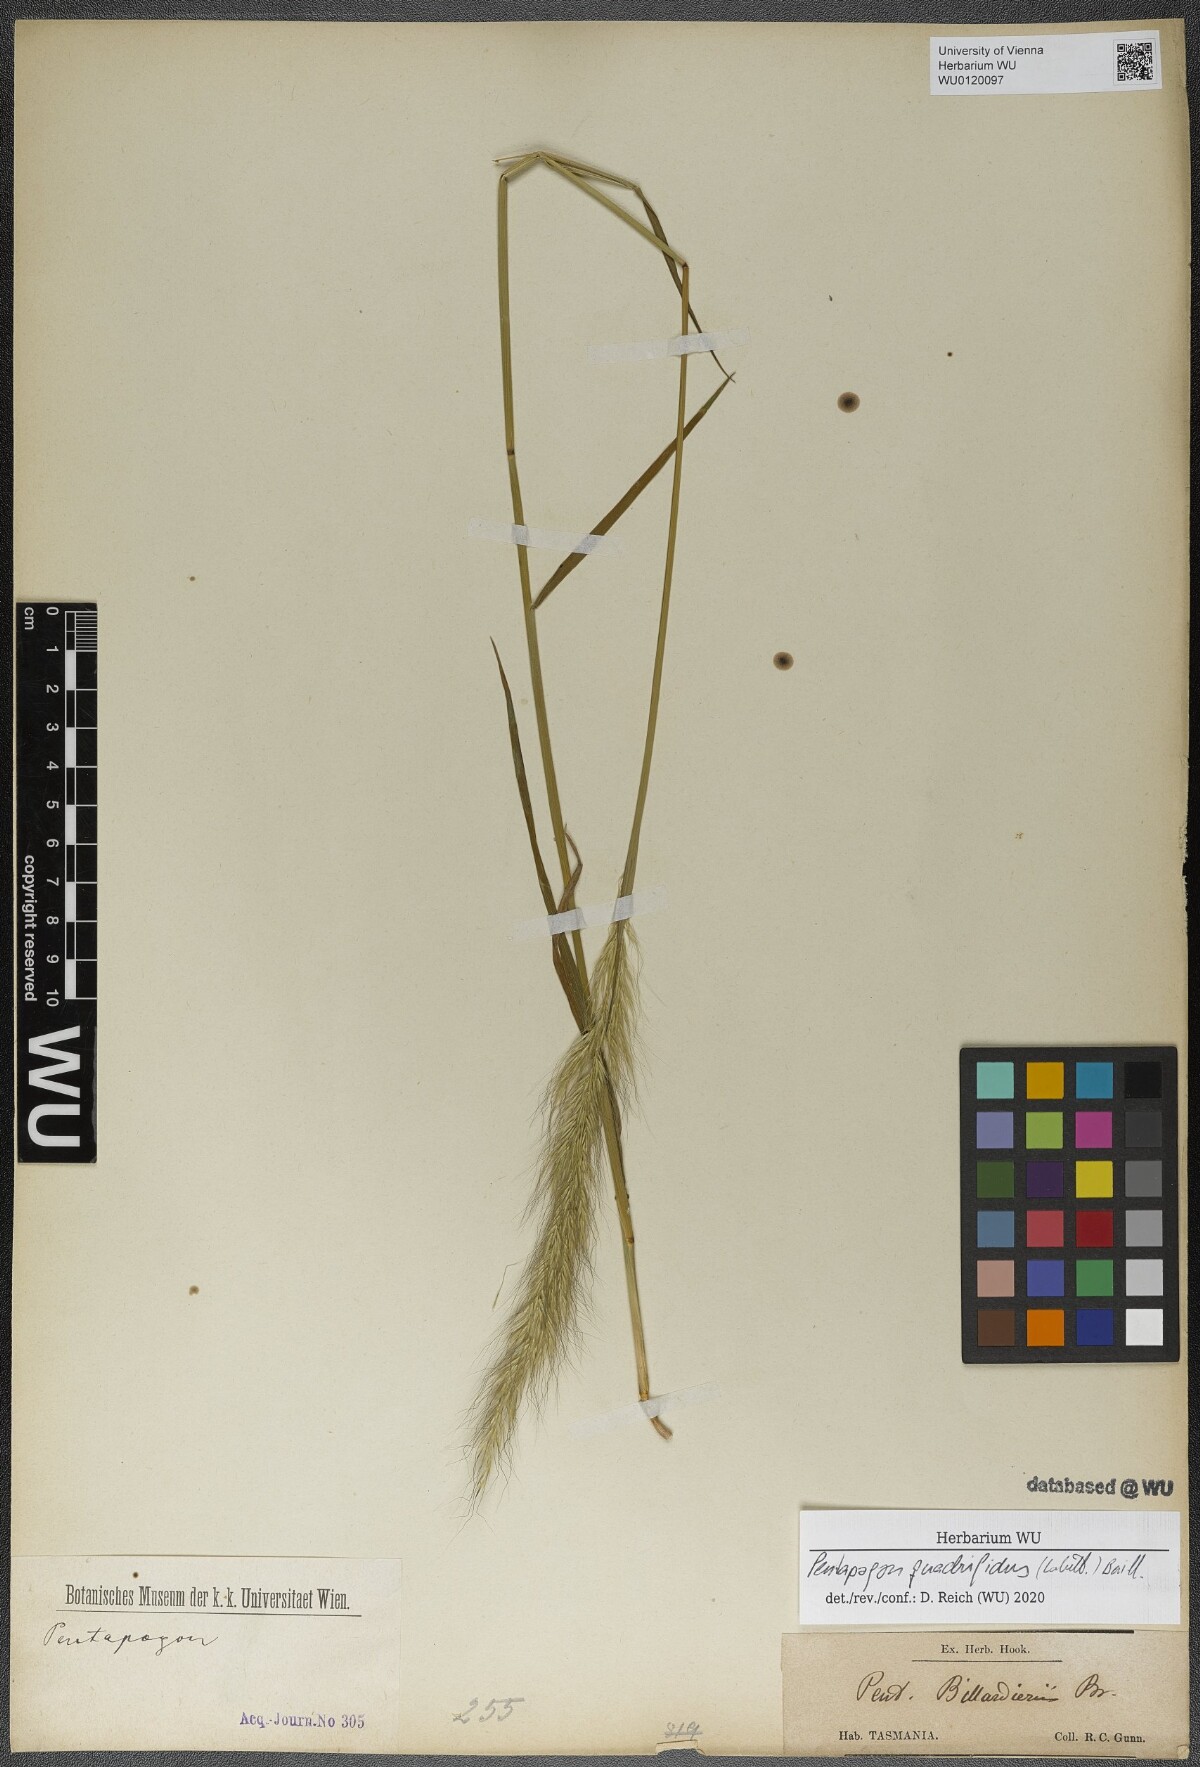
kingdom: Plantae
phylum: Tracheophyta
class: Liliopsida
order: Poales
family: Poaceae
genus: Dichelachne
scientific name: Dichelachne sieberiana
